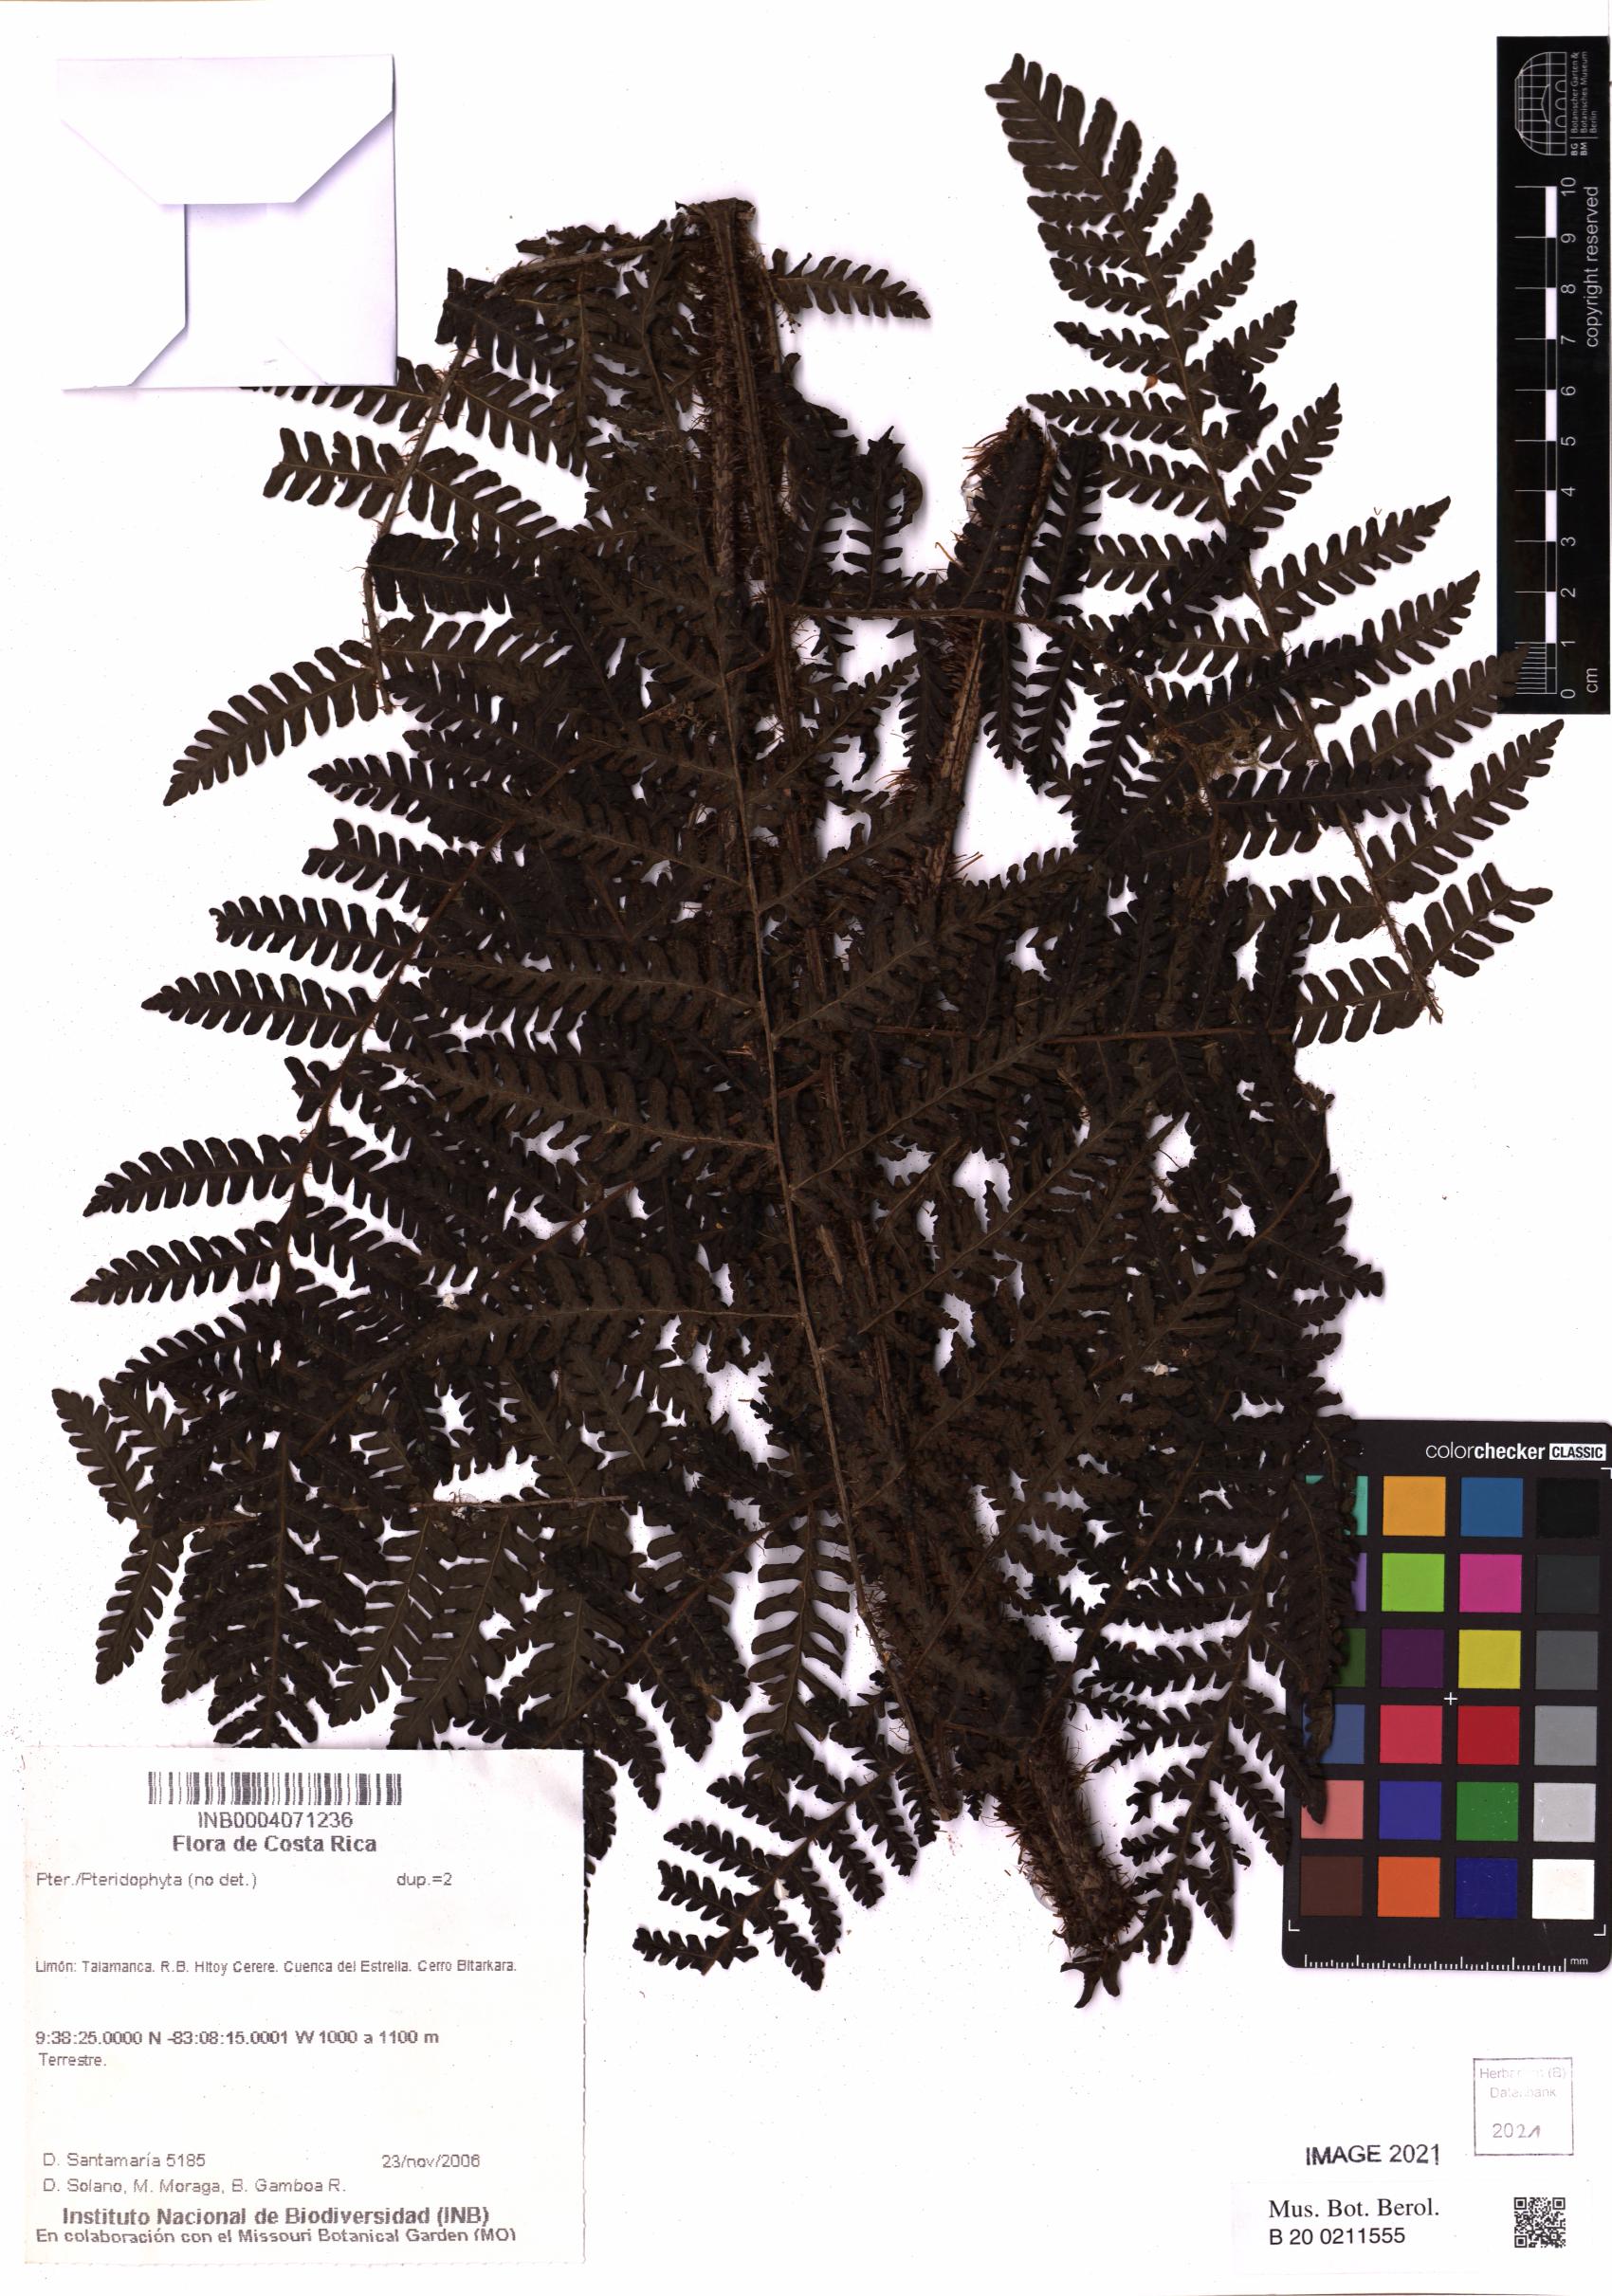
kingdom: Plantae
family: Pteridophyta
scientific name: Pteridophyta
